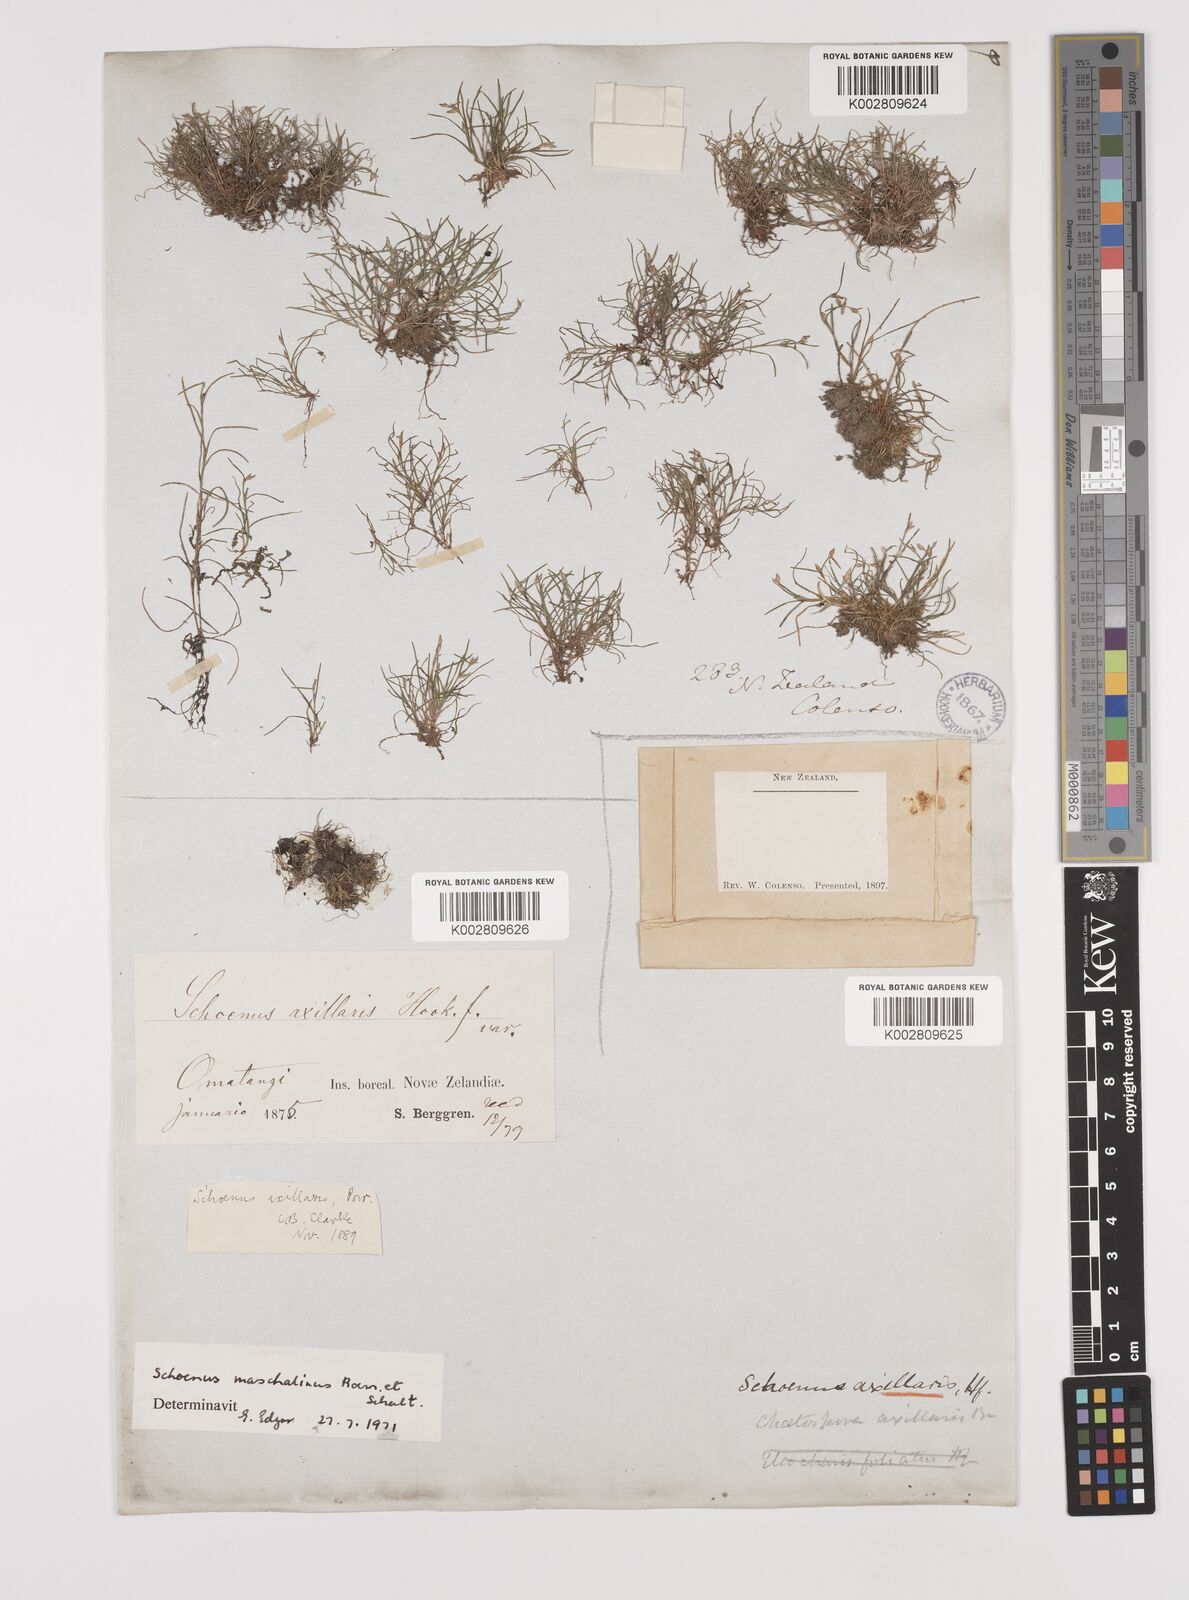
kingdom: Plantae
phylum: Tracheophyta
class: Liliopsida
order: Poales
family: Cyperaceae
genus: Schoenus
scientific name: Schoenus maschalinus
